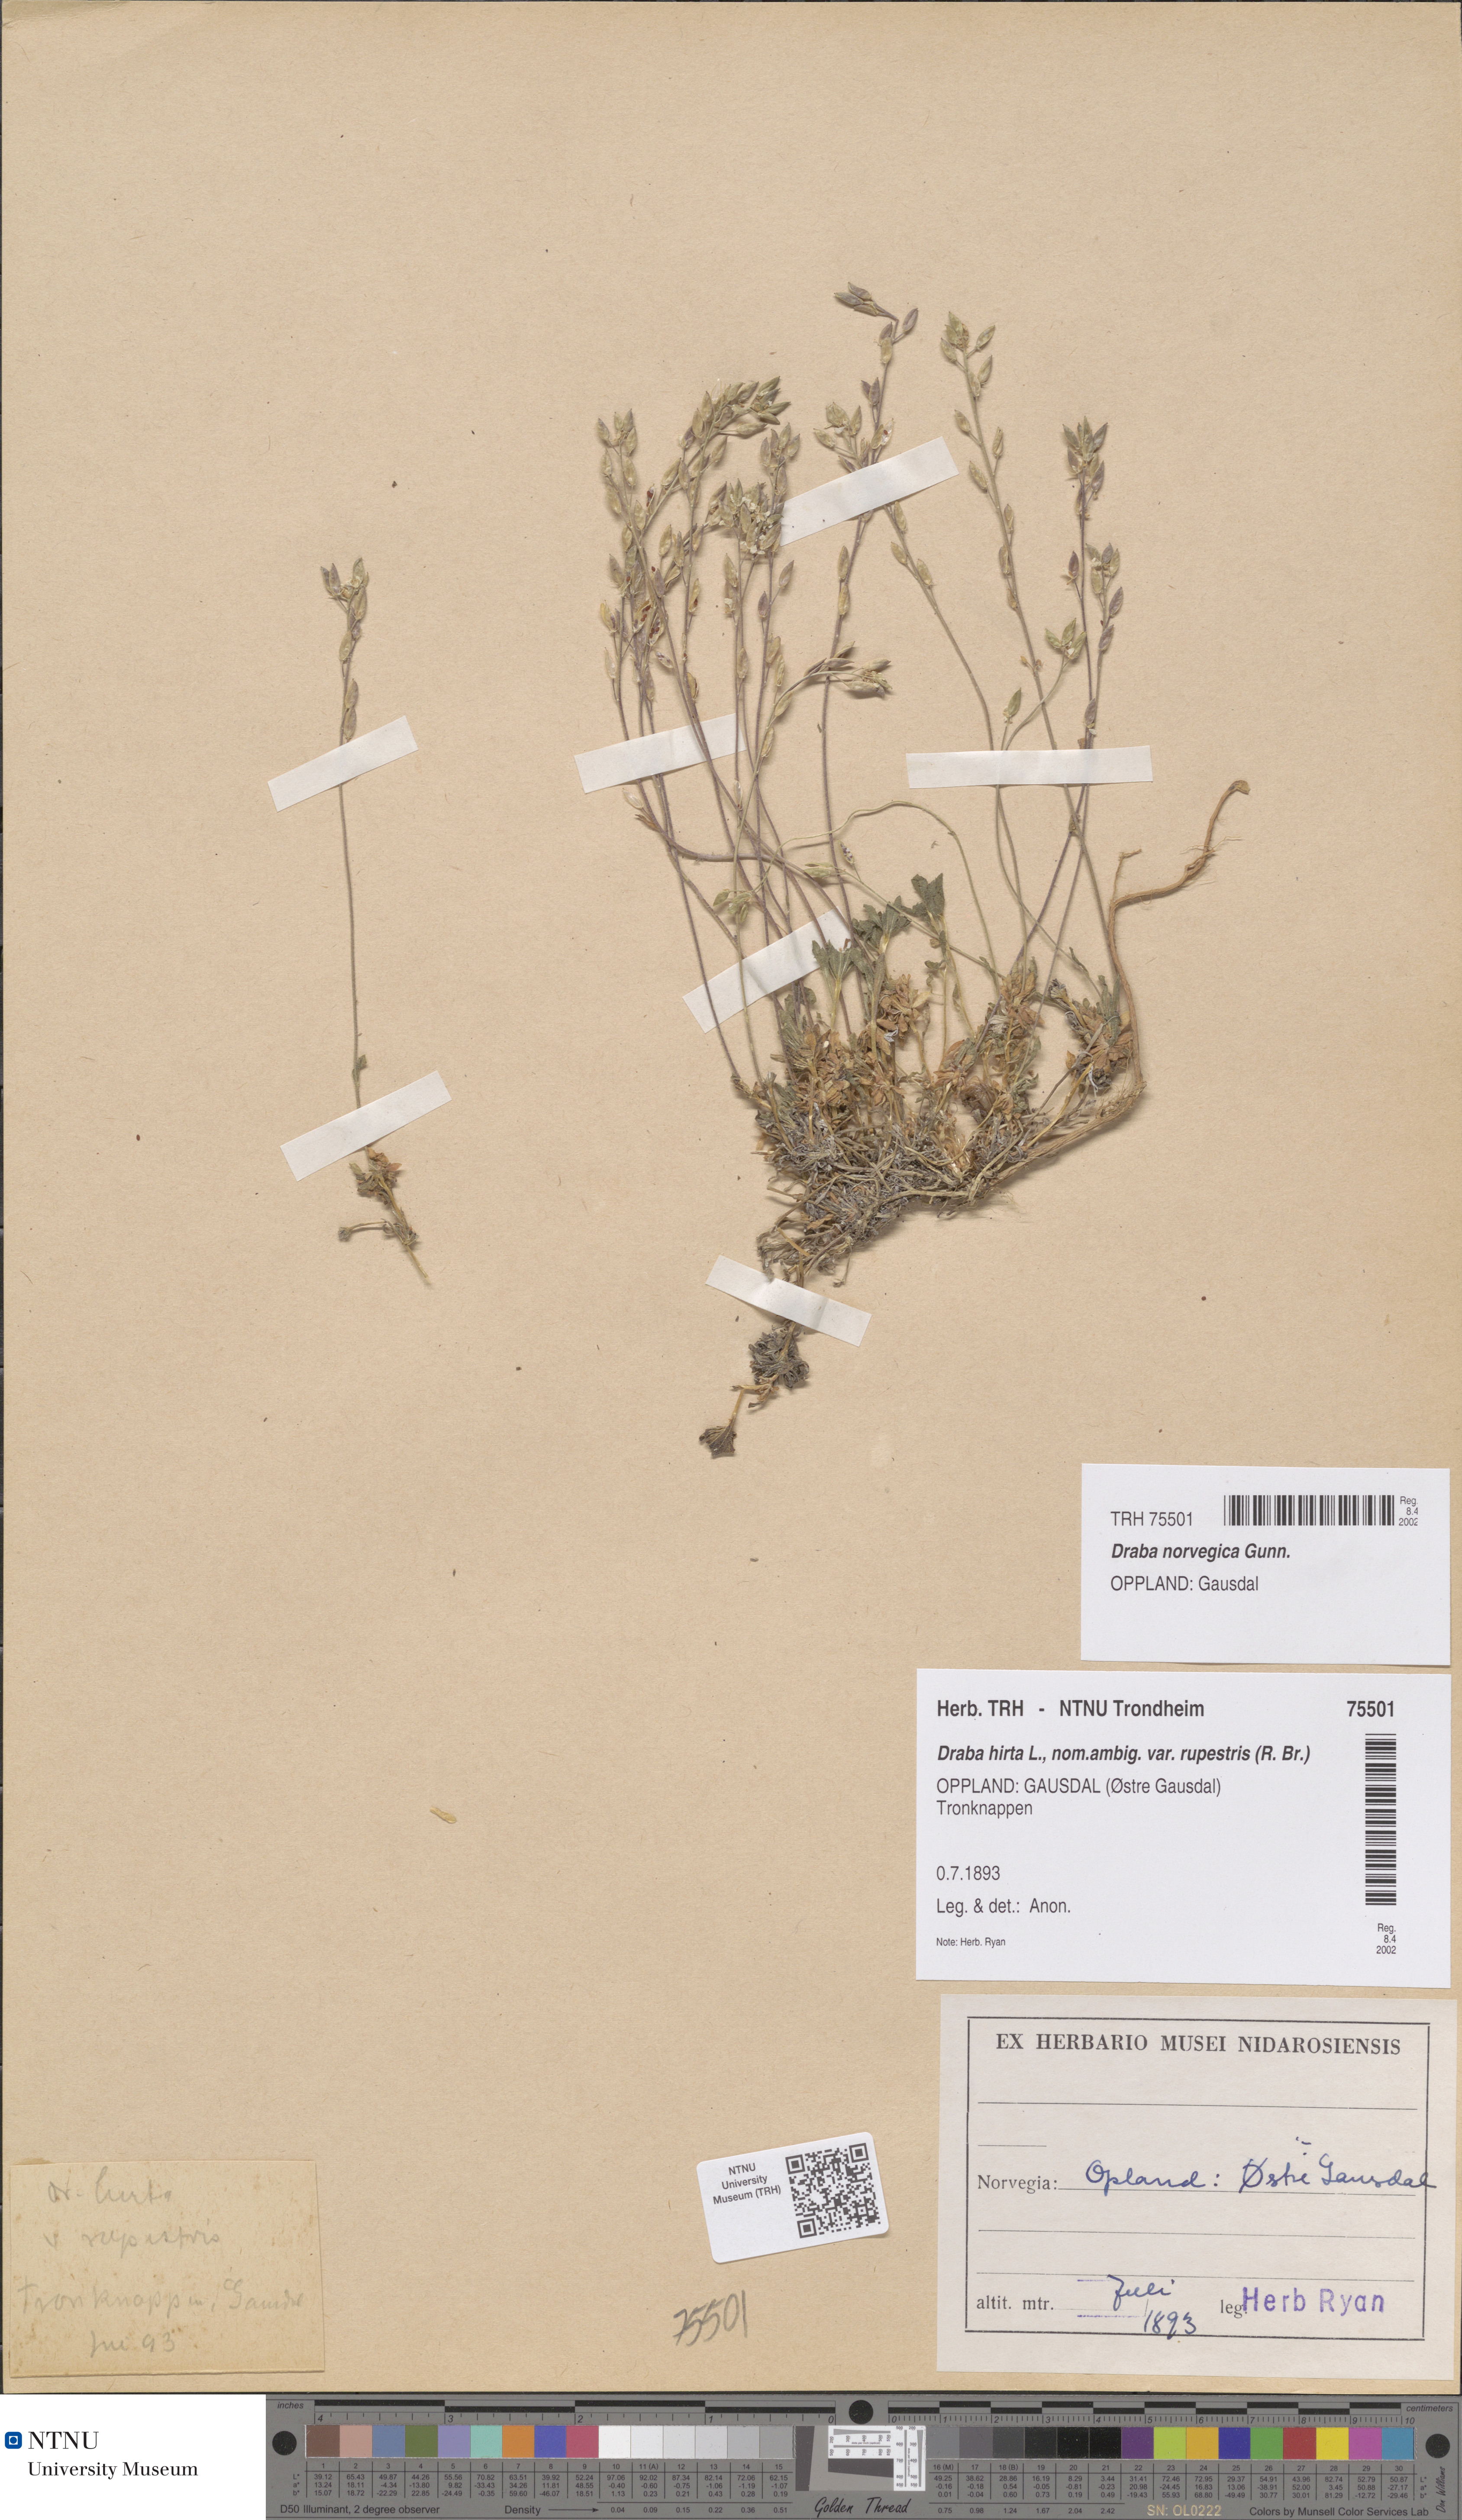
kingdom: Plantae
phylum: Tracheophyta
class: Magnoliopsida
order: Brassicales
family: Brassicaceae
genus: Draba
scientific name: Draba norvegica
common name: Rock whitlowgrass
